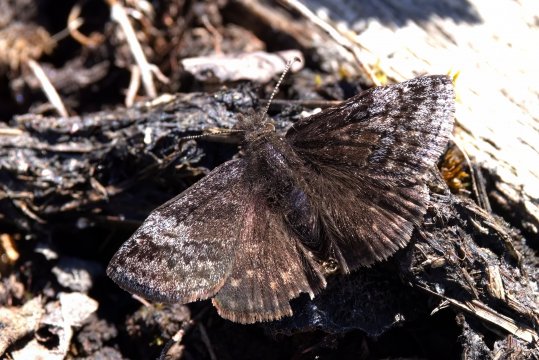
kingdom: Animalia
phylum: Arthropoda
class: Insecta
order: Lepidoptera
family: Hesperiidae
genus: Erynnis
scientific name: Erynnis icelus
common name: Dreamy Duskywing
